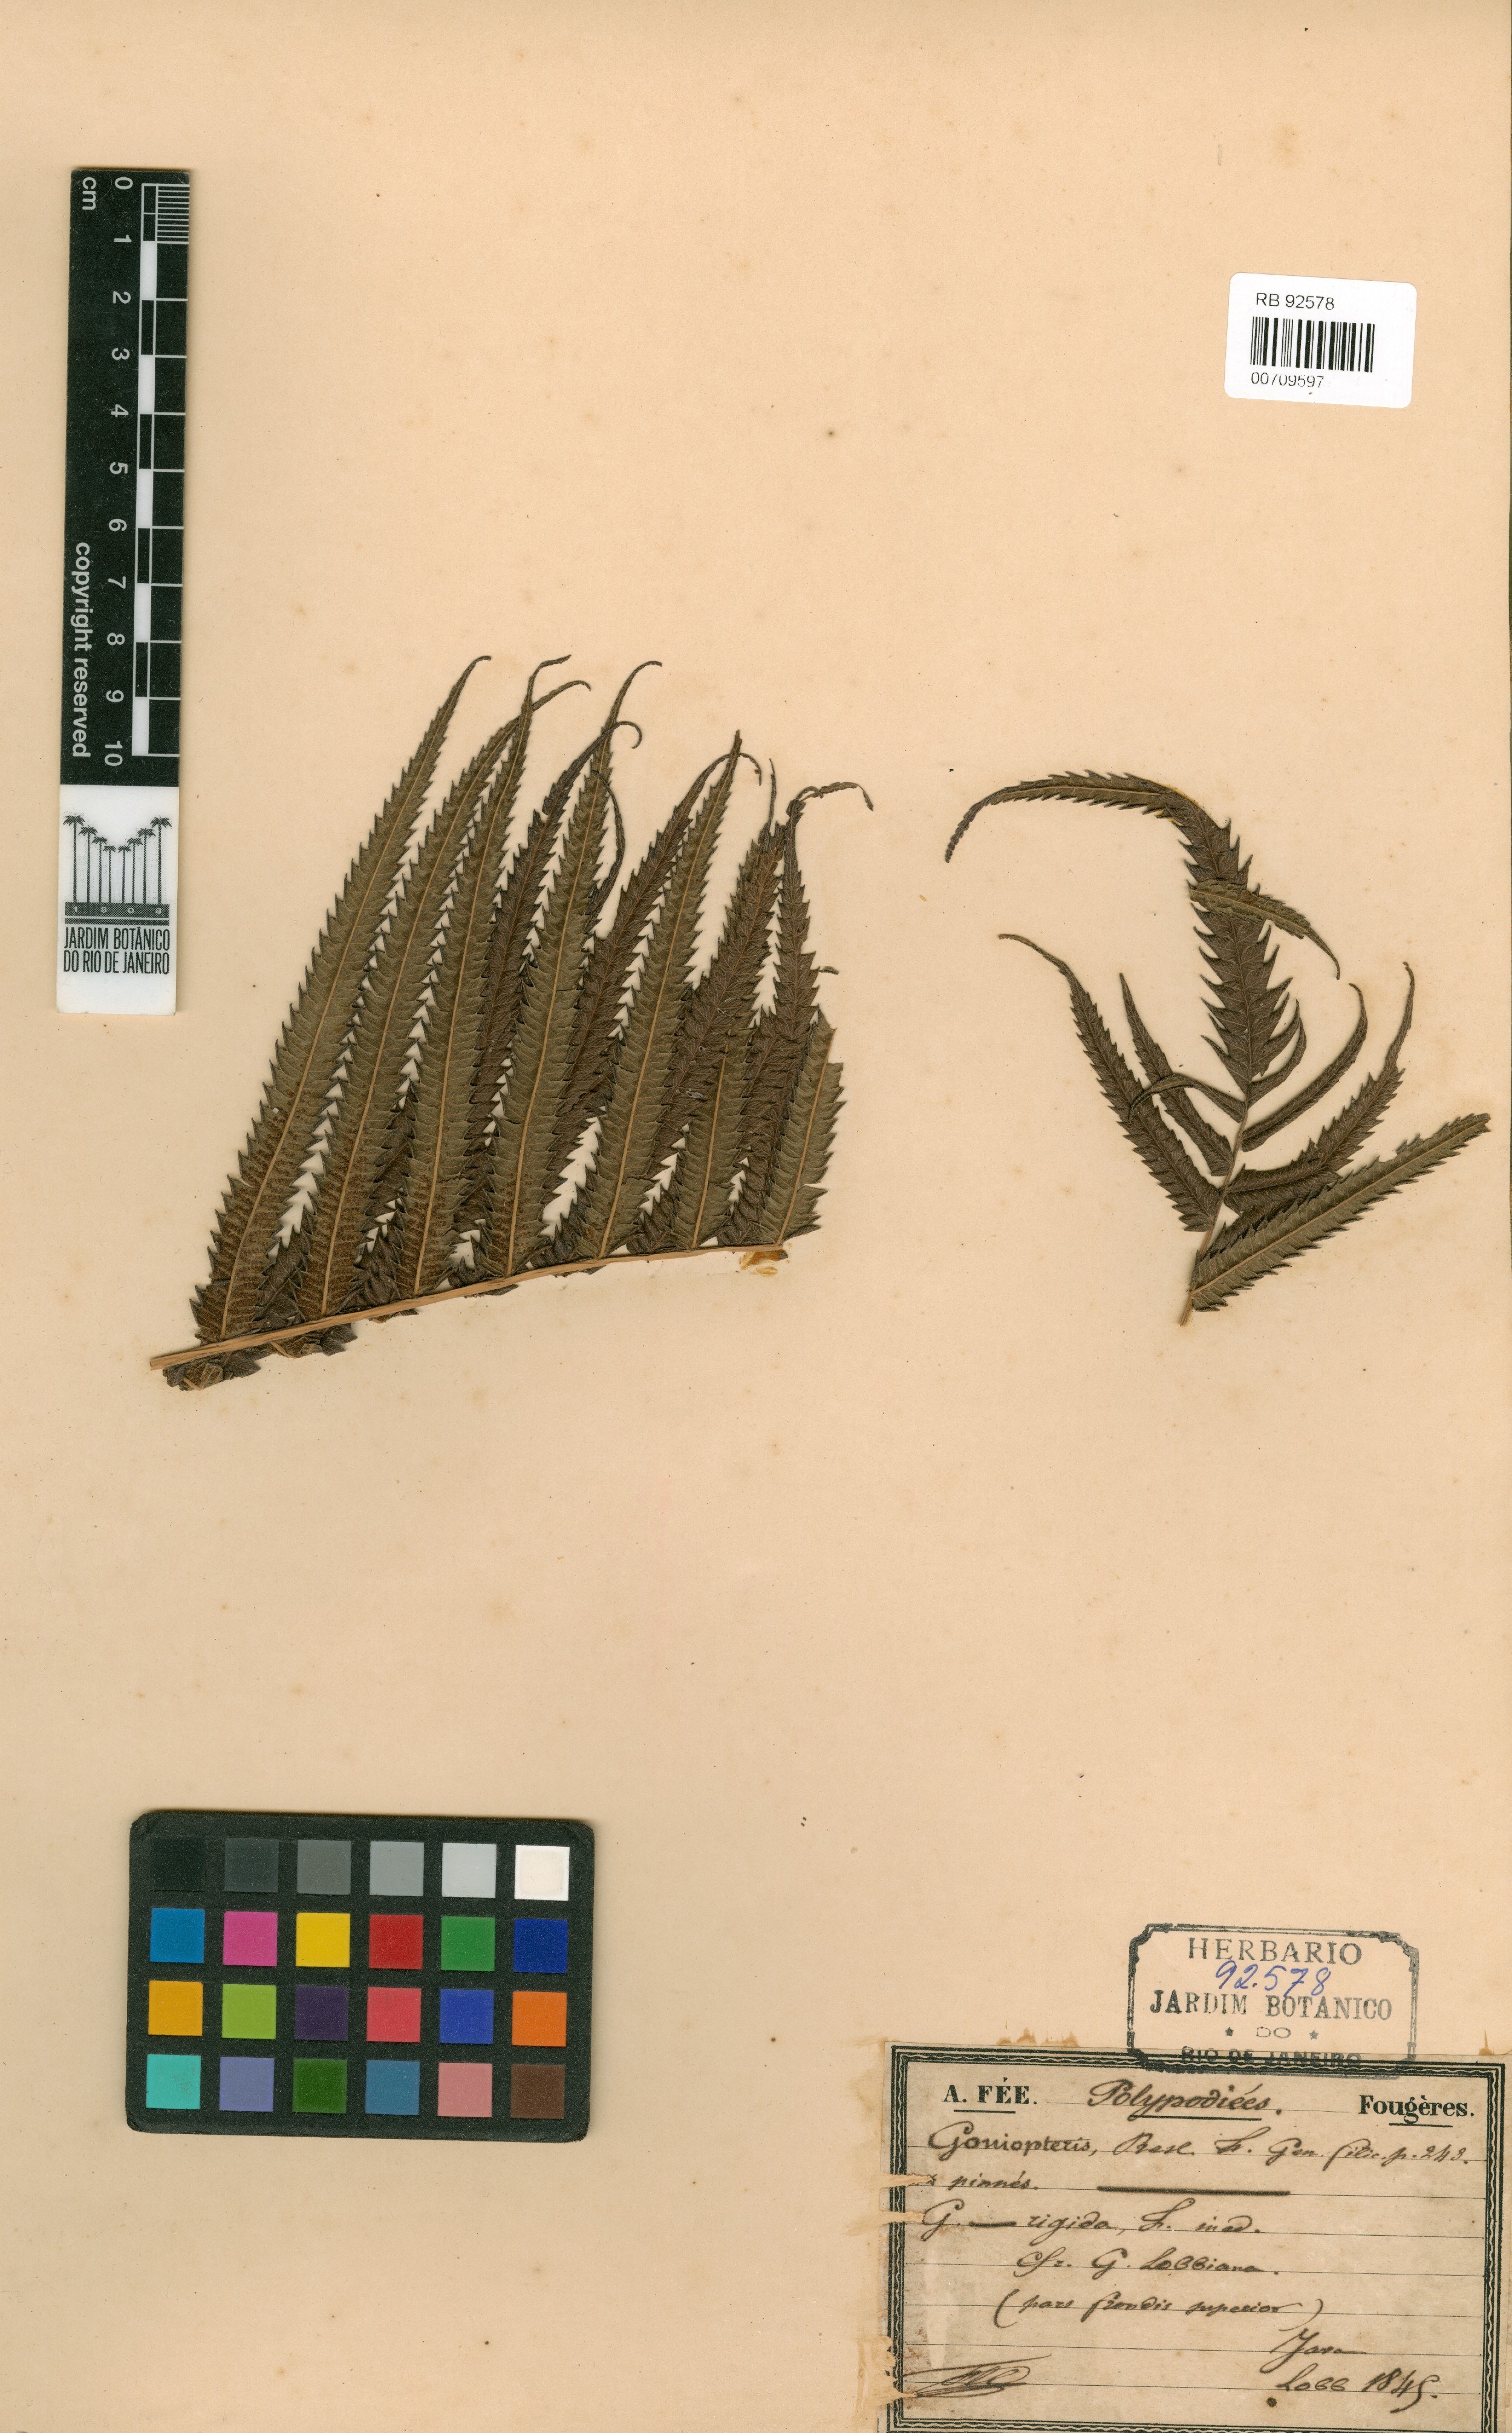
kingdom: Plantae
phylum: Tracheophyta
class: Polypodiopsida
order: Polypodiales
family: Thelypteridaceae
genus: Sphaerostephanos
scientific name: Sphaerostephanos rigidus
